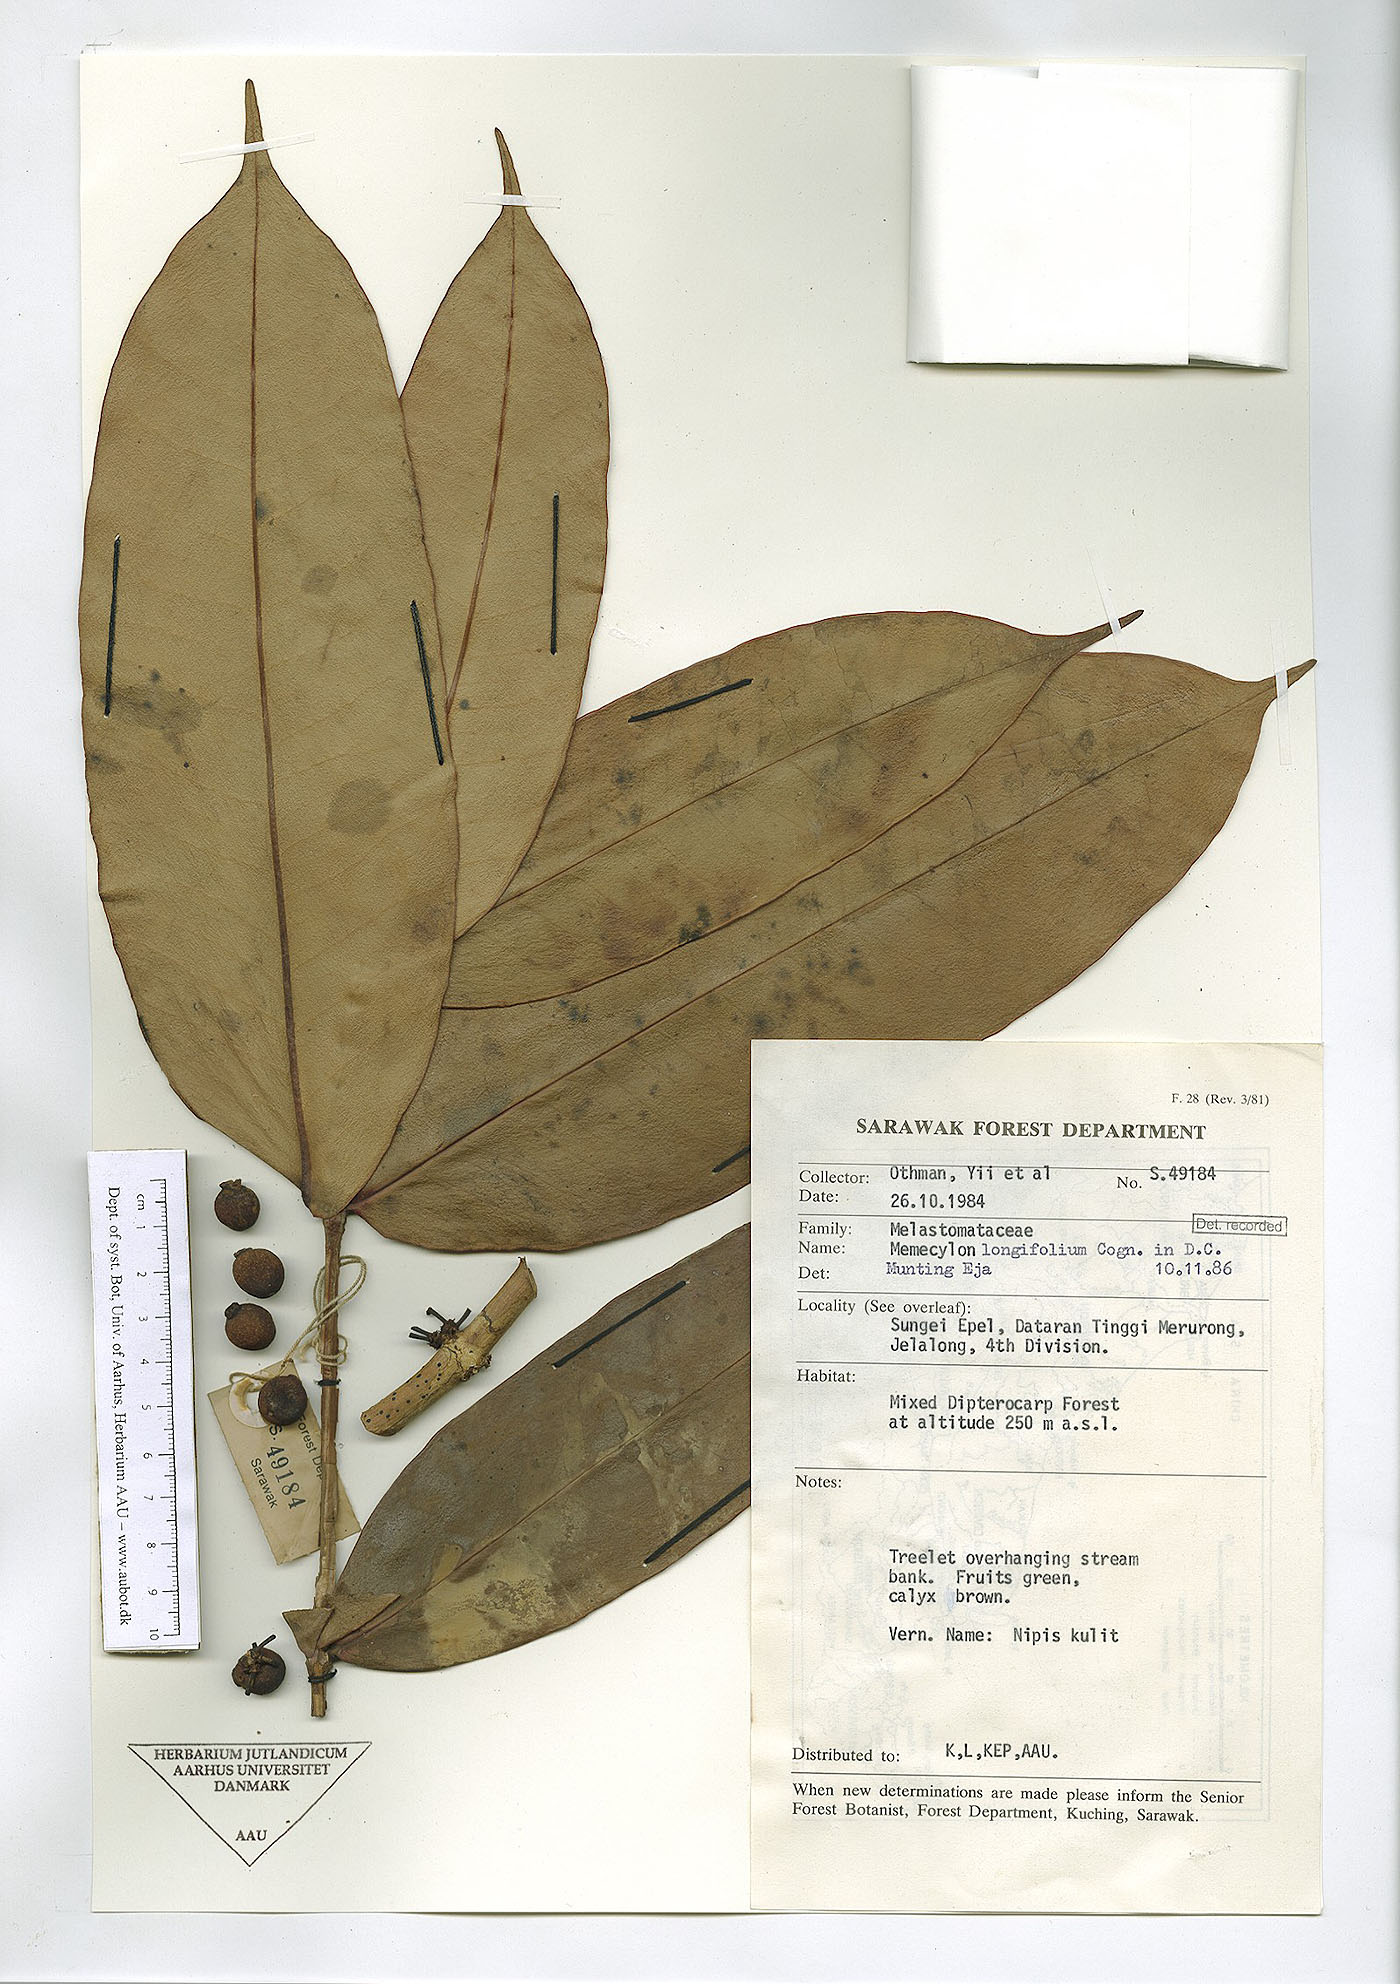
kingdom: Plantae
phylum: Tracheophyta
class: Magnoliopsida
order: Myrtales
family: Melastomataceae
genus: Memecylon
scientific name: Memecylon longifolium
